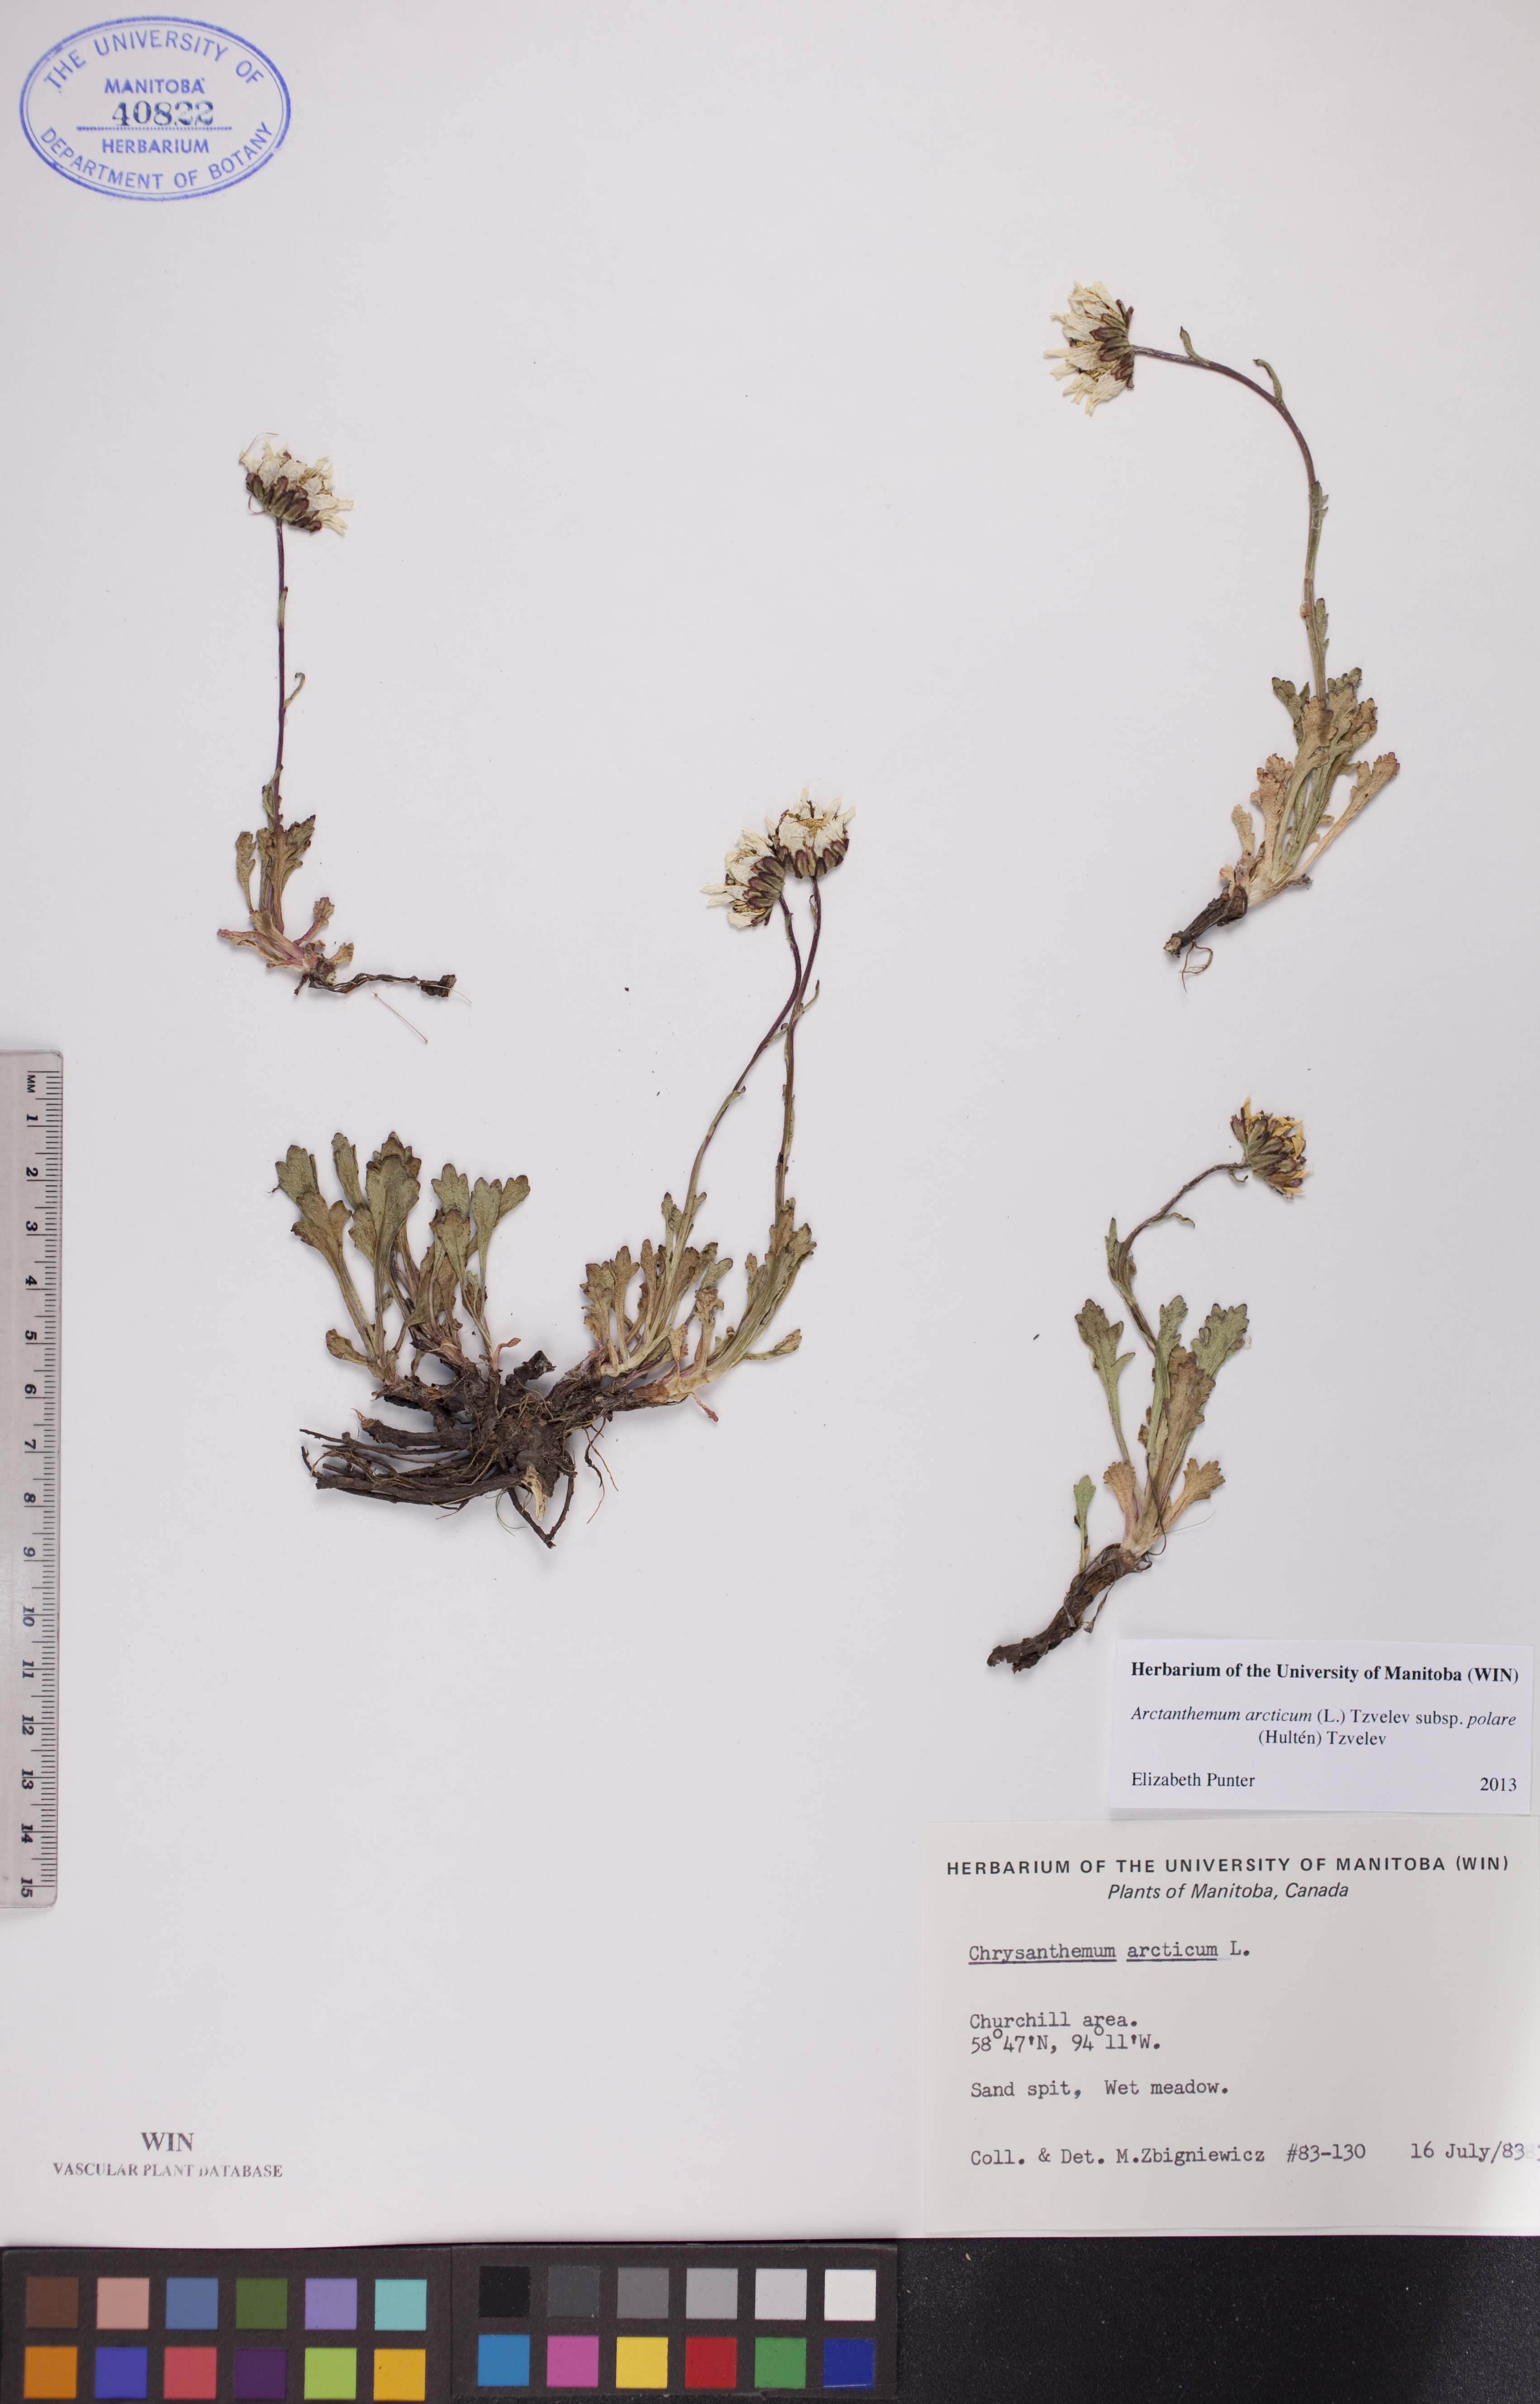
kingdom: Plantae
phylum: Tracheophyta
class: Magnoliopsida
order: Asterales
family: Asteraceae
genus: Arctanthemum
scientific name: Arctanthemum arcticum
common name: Arctic daisy
